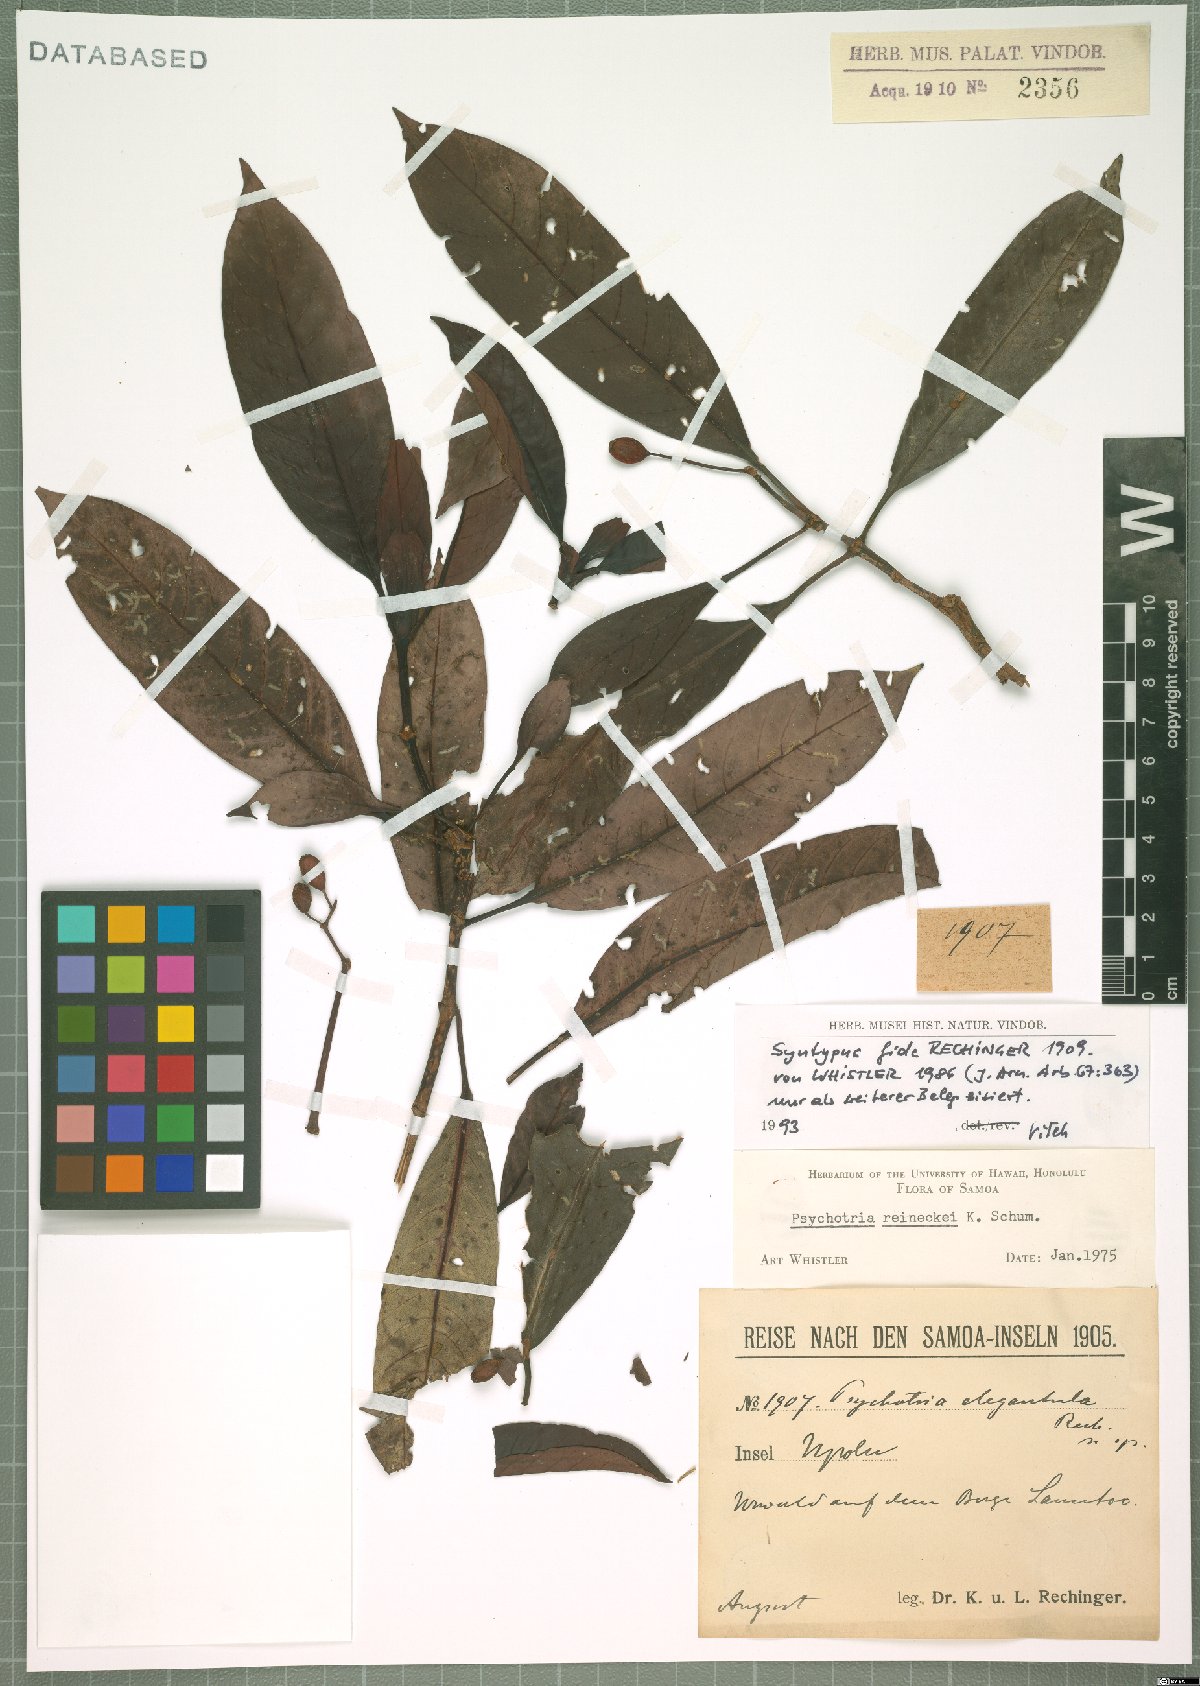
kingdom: Plantae
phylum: Tracheophyta
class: Magnoliopsida
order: Gentianales
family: Rubiaceae
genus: Psychotria
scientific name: Psychotria reineckei
